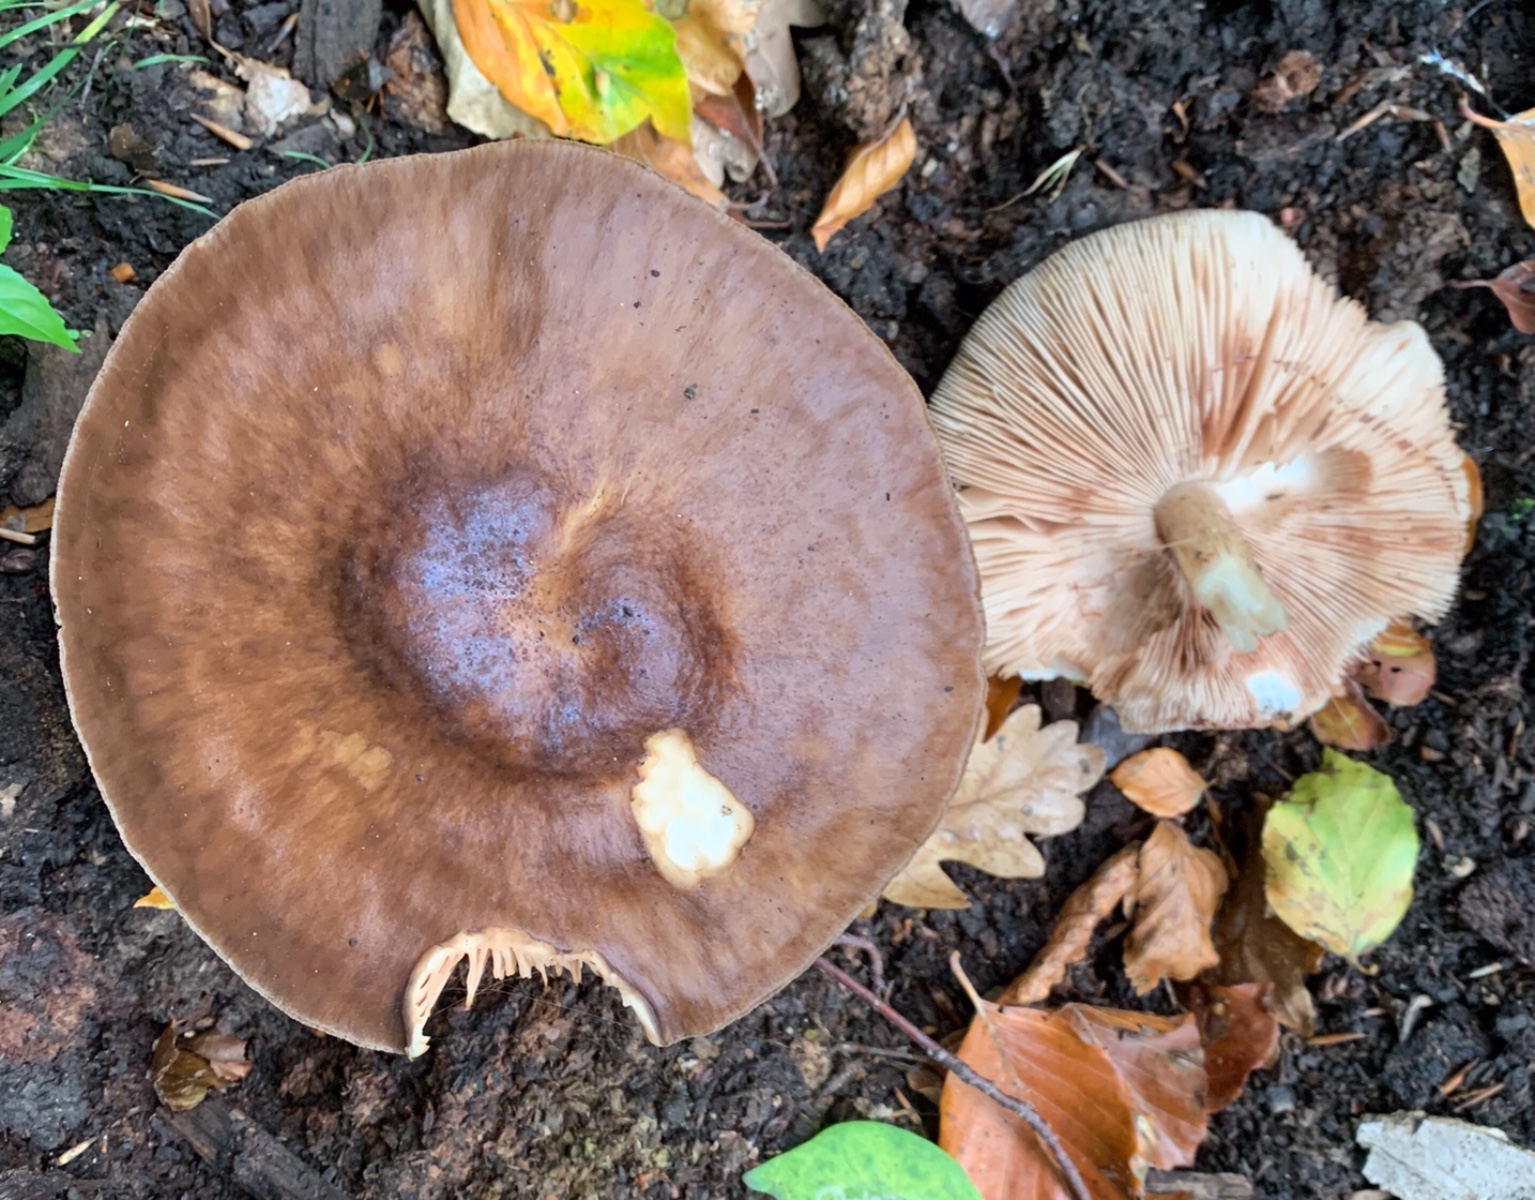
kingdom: Fungi
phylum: Basidiomycota
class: Agaricomycetes
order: Agaricales
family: Pluteaceae
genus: Pluteus
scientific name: Pluteus cervinus
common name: sodfarvet skærmhat
